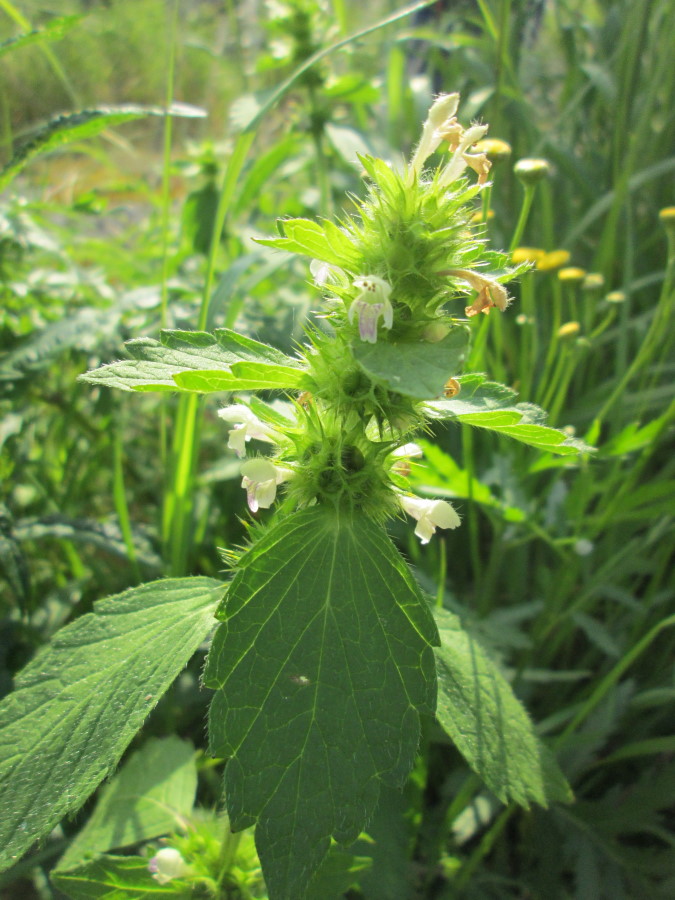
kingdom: Plantae
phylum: Tracheophyta
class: Magnoliopsida
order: Lamiales
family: Lamiaceae
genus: Galeopsis
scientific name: Galeopsis bifida
